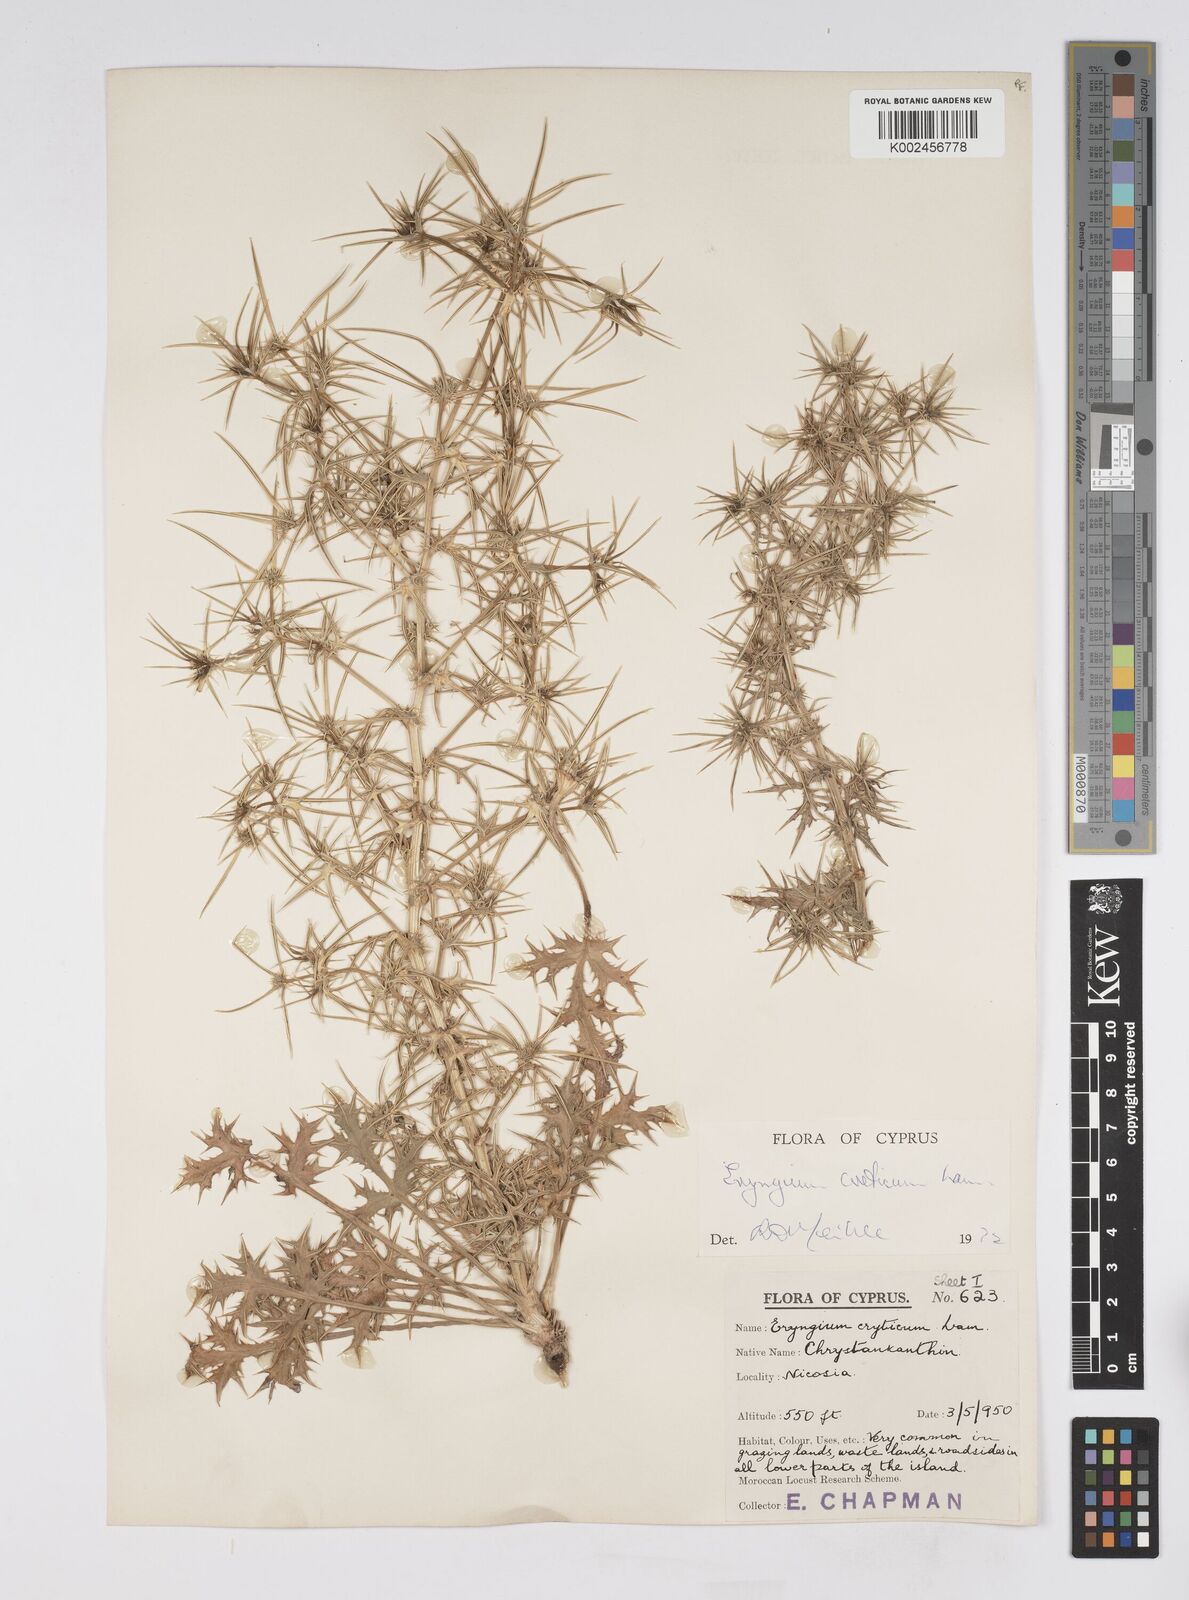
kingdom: Plantae
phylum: Tracheophyta
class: Magnoliopsida
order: Apiales
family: Apiaceae
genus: Eryngium
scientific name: Eryngium creticum
